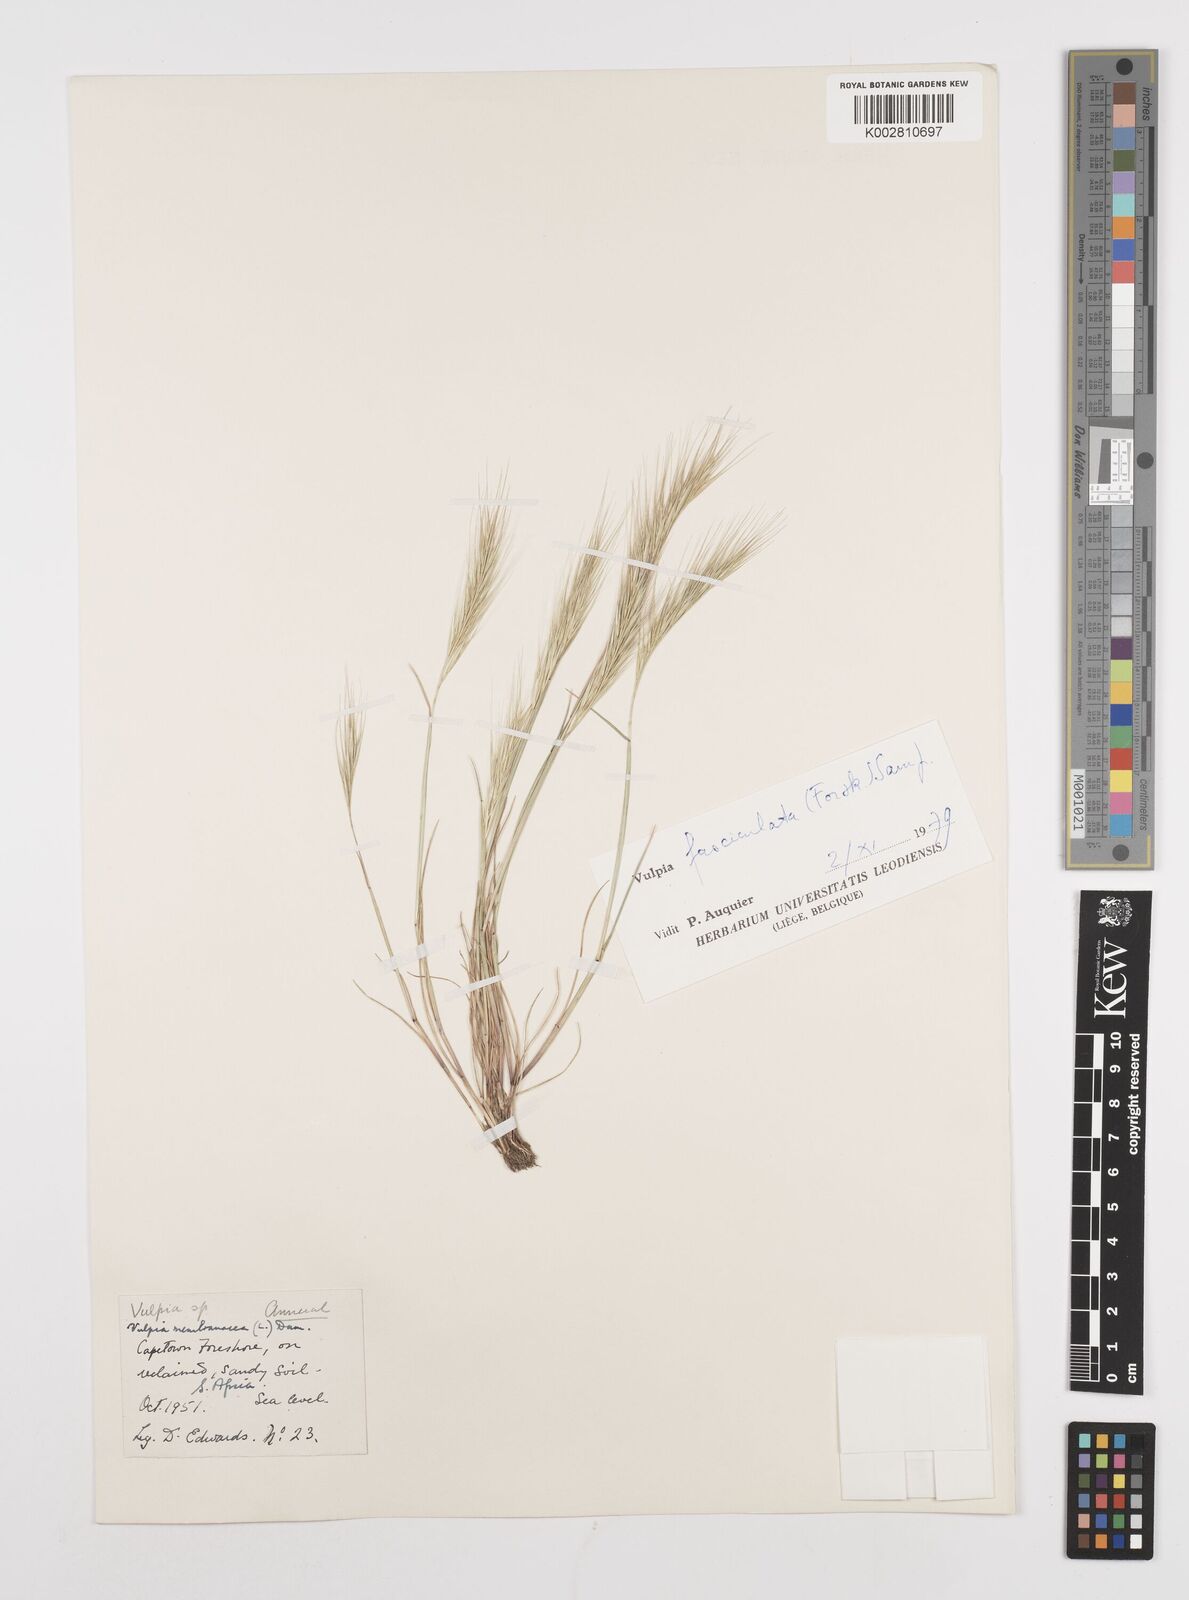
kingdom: Plantae
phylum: Tracheophyta
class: Liliopsida
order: Poales
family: Poaceae
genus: Festuca
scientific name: Festuca fasciculata
